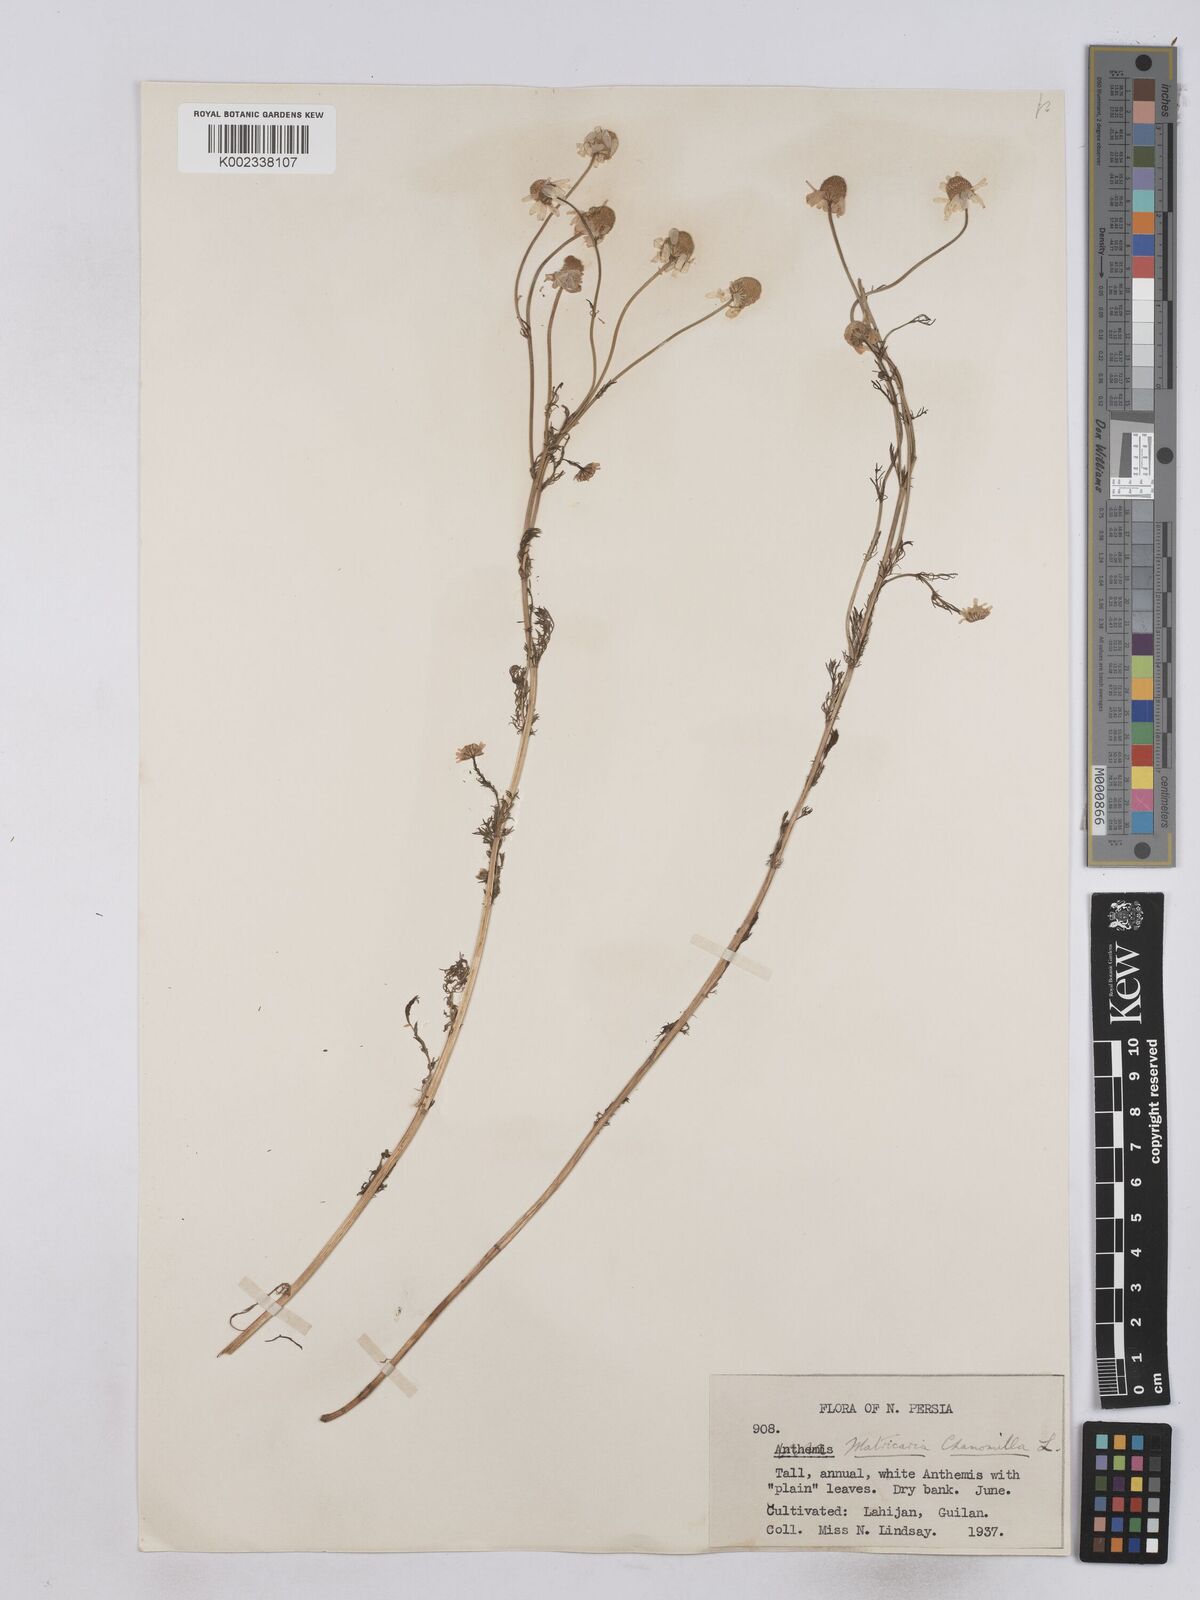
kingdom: Plantae
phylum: Tracheophyta
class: Magnoliopsida
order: Asterales
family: Asteraceae
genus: Matricaria
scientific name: Matricaria chamomilla
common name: Scented mayweed
